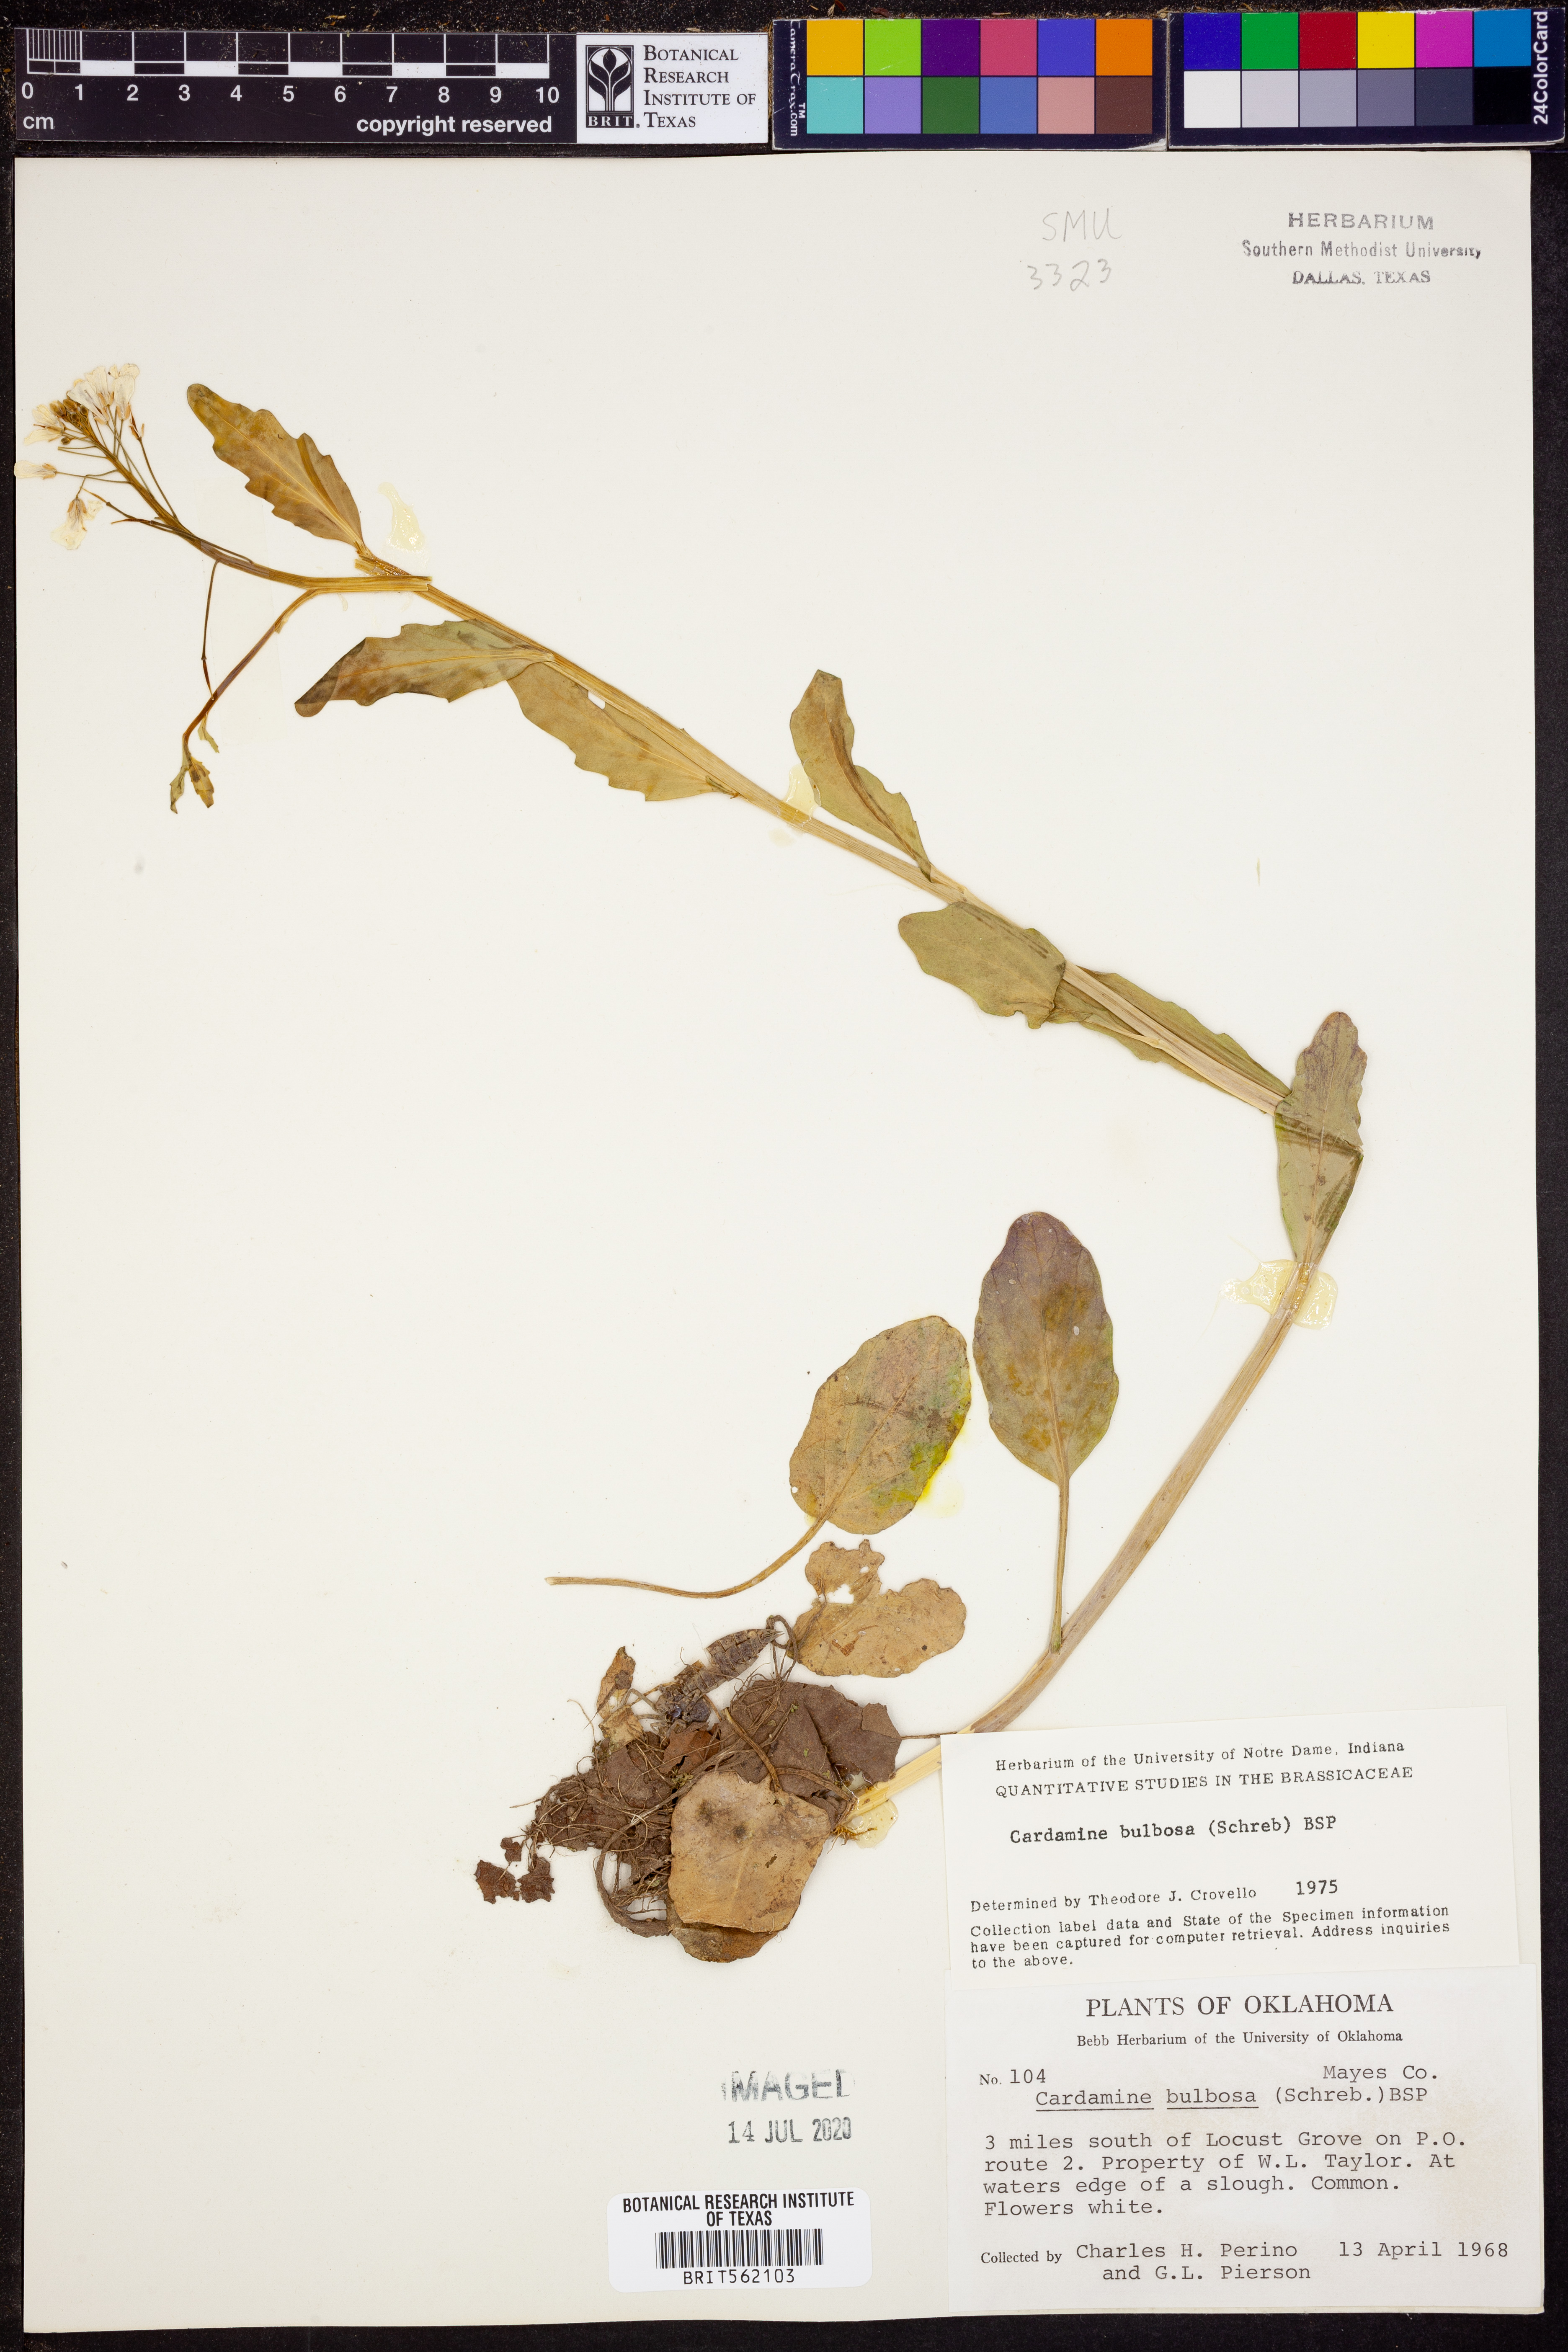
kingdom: Plantae
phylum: Tracheophyta
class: Magnoliopsida
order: Brassicales
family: Brassicaceae
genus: Cardamine
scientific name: Cardamine bulbosa
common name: Spring cress
